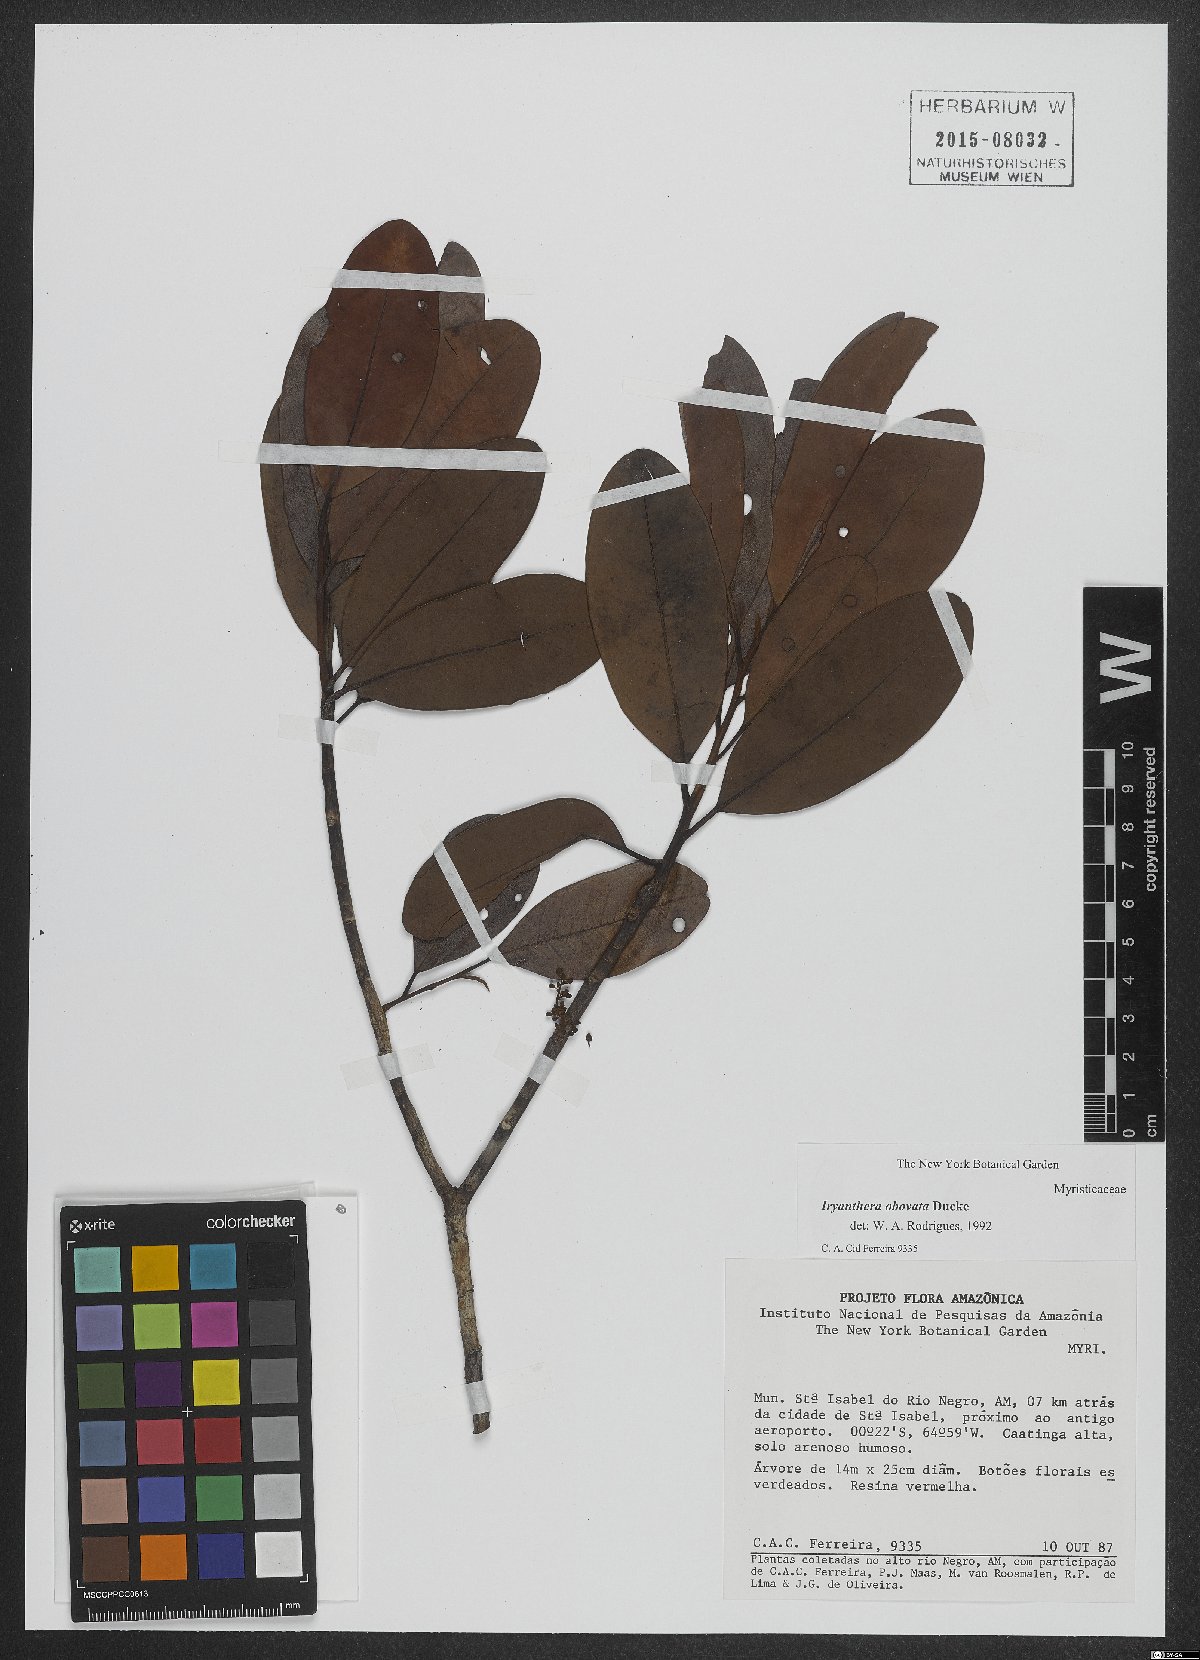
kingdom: Plantae
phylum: Tracheophyta
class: Magnoliopsida
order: Magnoliales
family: Myristicaceae
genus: Iryanthera
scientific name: Iryanthera obovata
